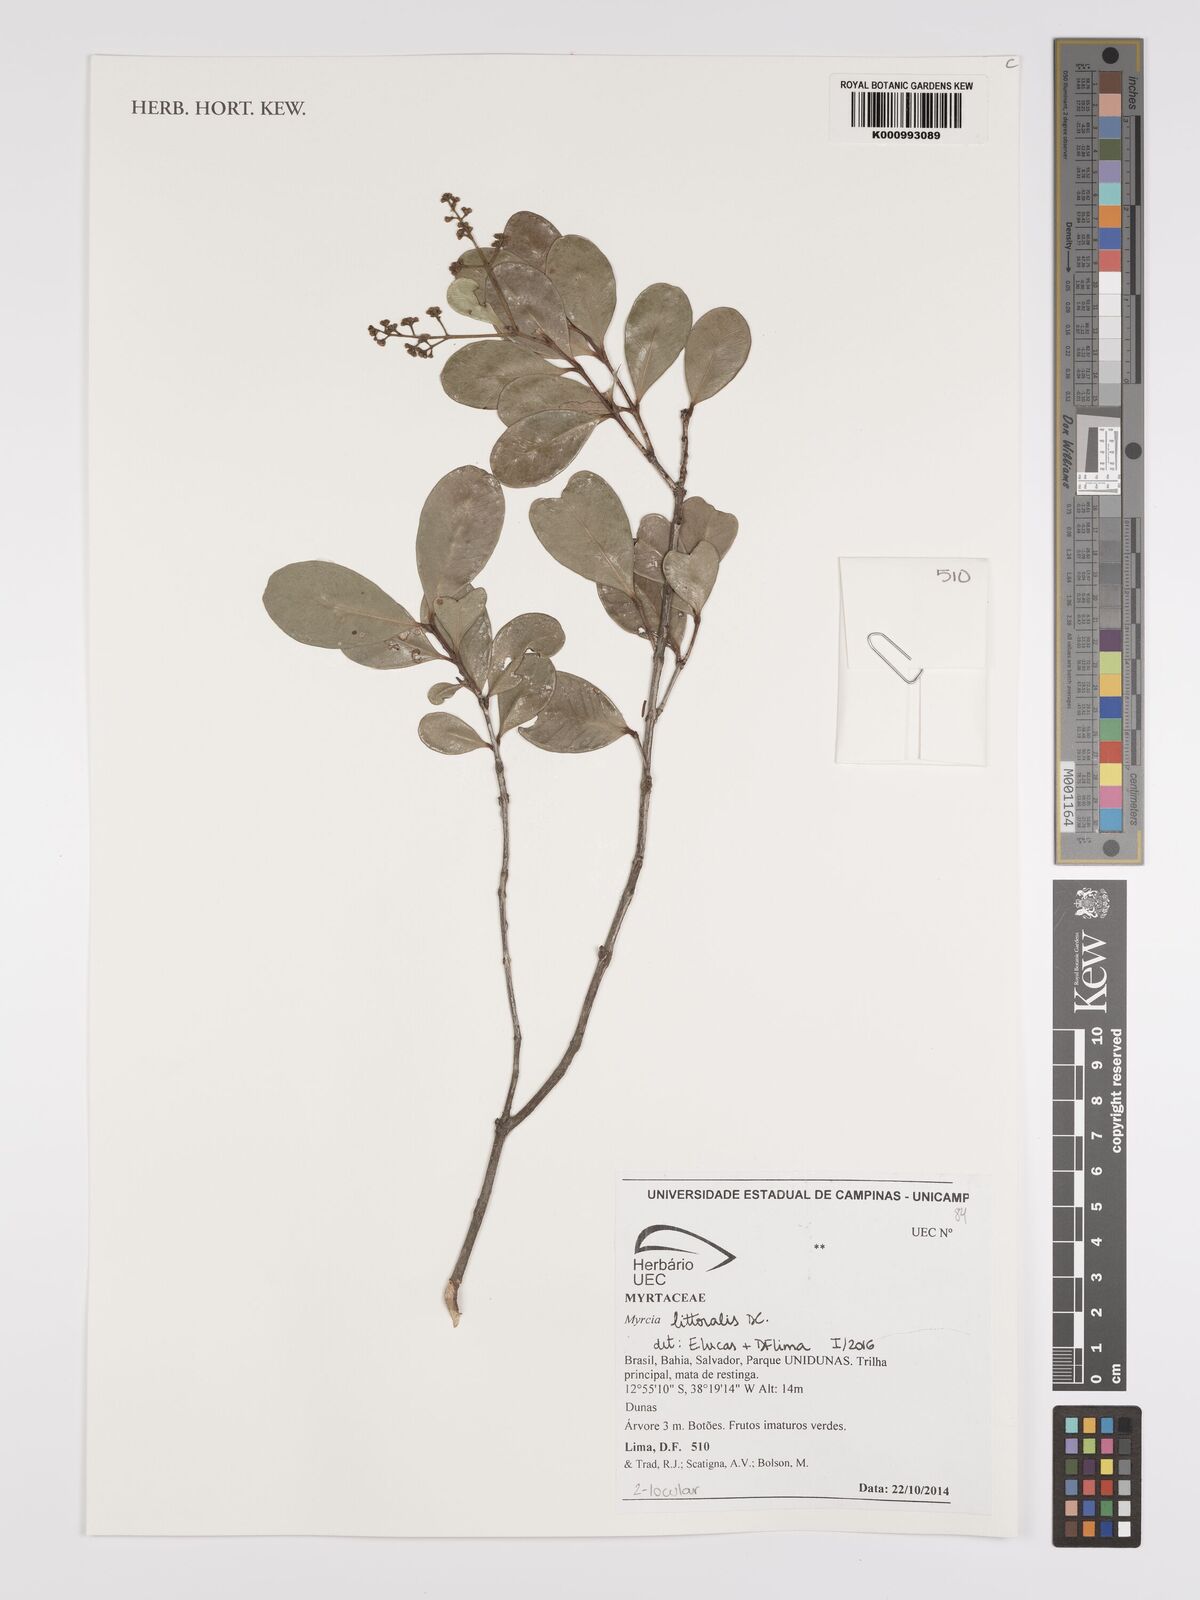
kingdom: Plantae
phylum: Tracheophyta
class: Magnoliopsida
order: Myrtales
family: Myrtaceae
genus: Myrcia
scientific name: Myrcia littoralis
